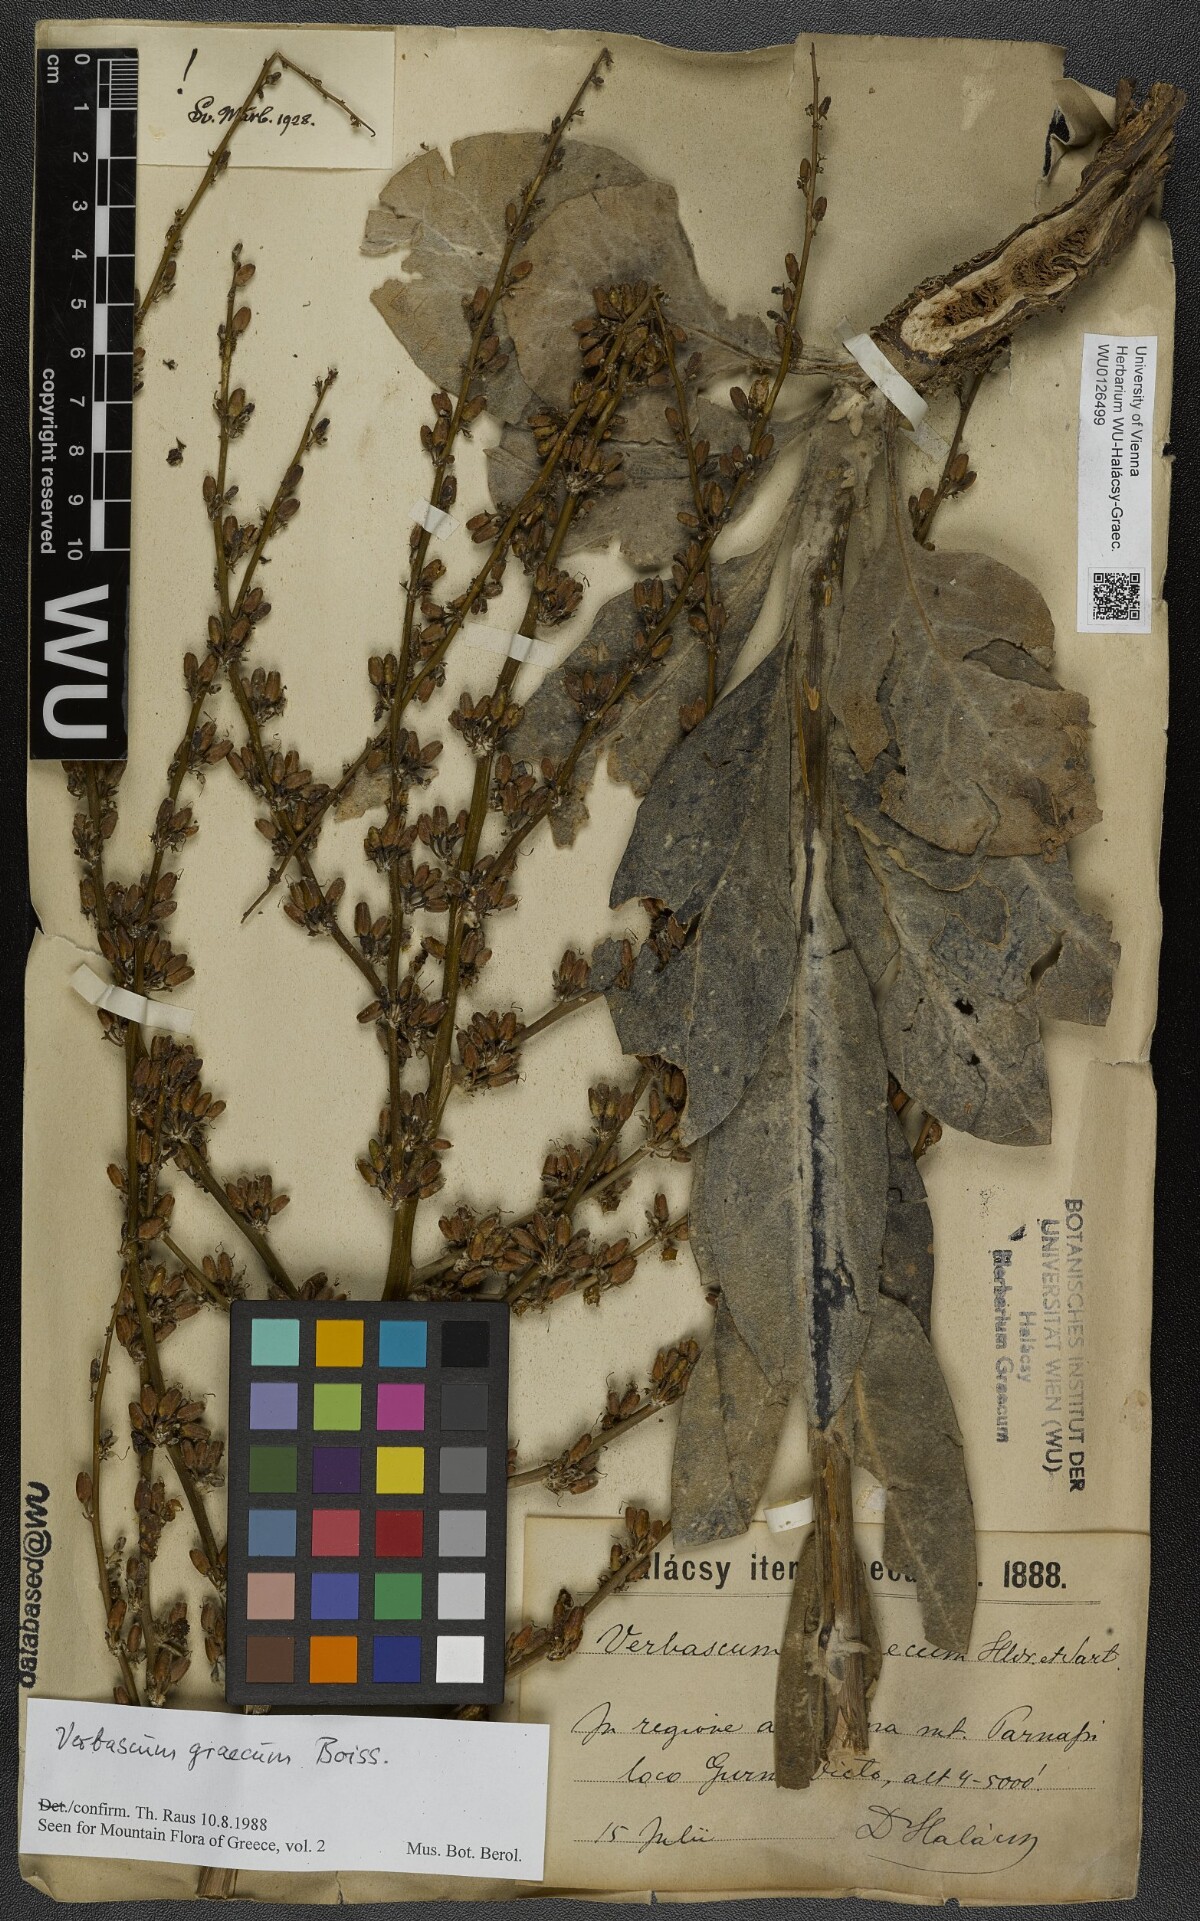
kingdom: Plantae
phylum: Tracheophyta
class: Magnoliopsida
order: Lamiales
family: Scrophulariaceae
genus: Verbascum
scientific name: Verbascum graecum
